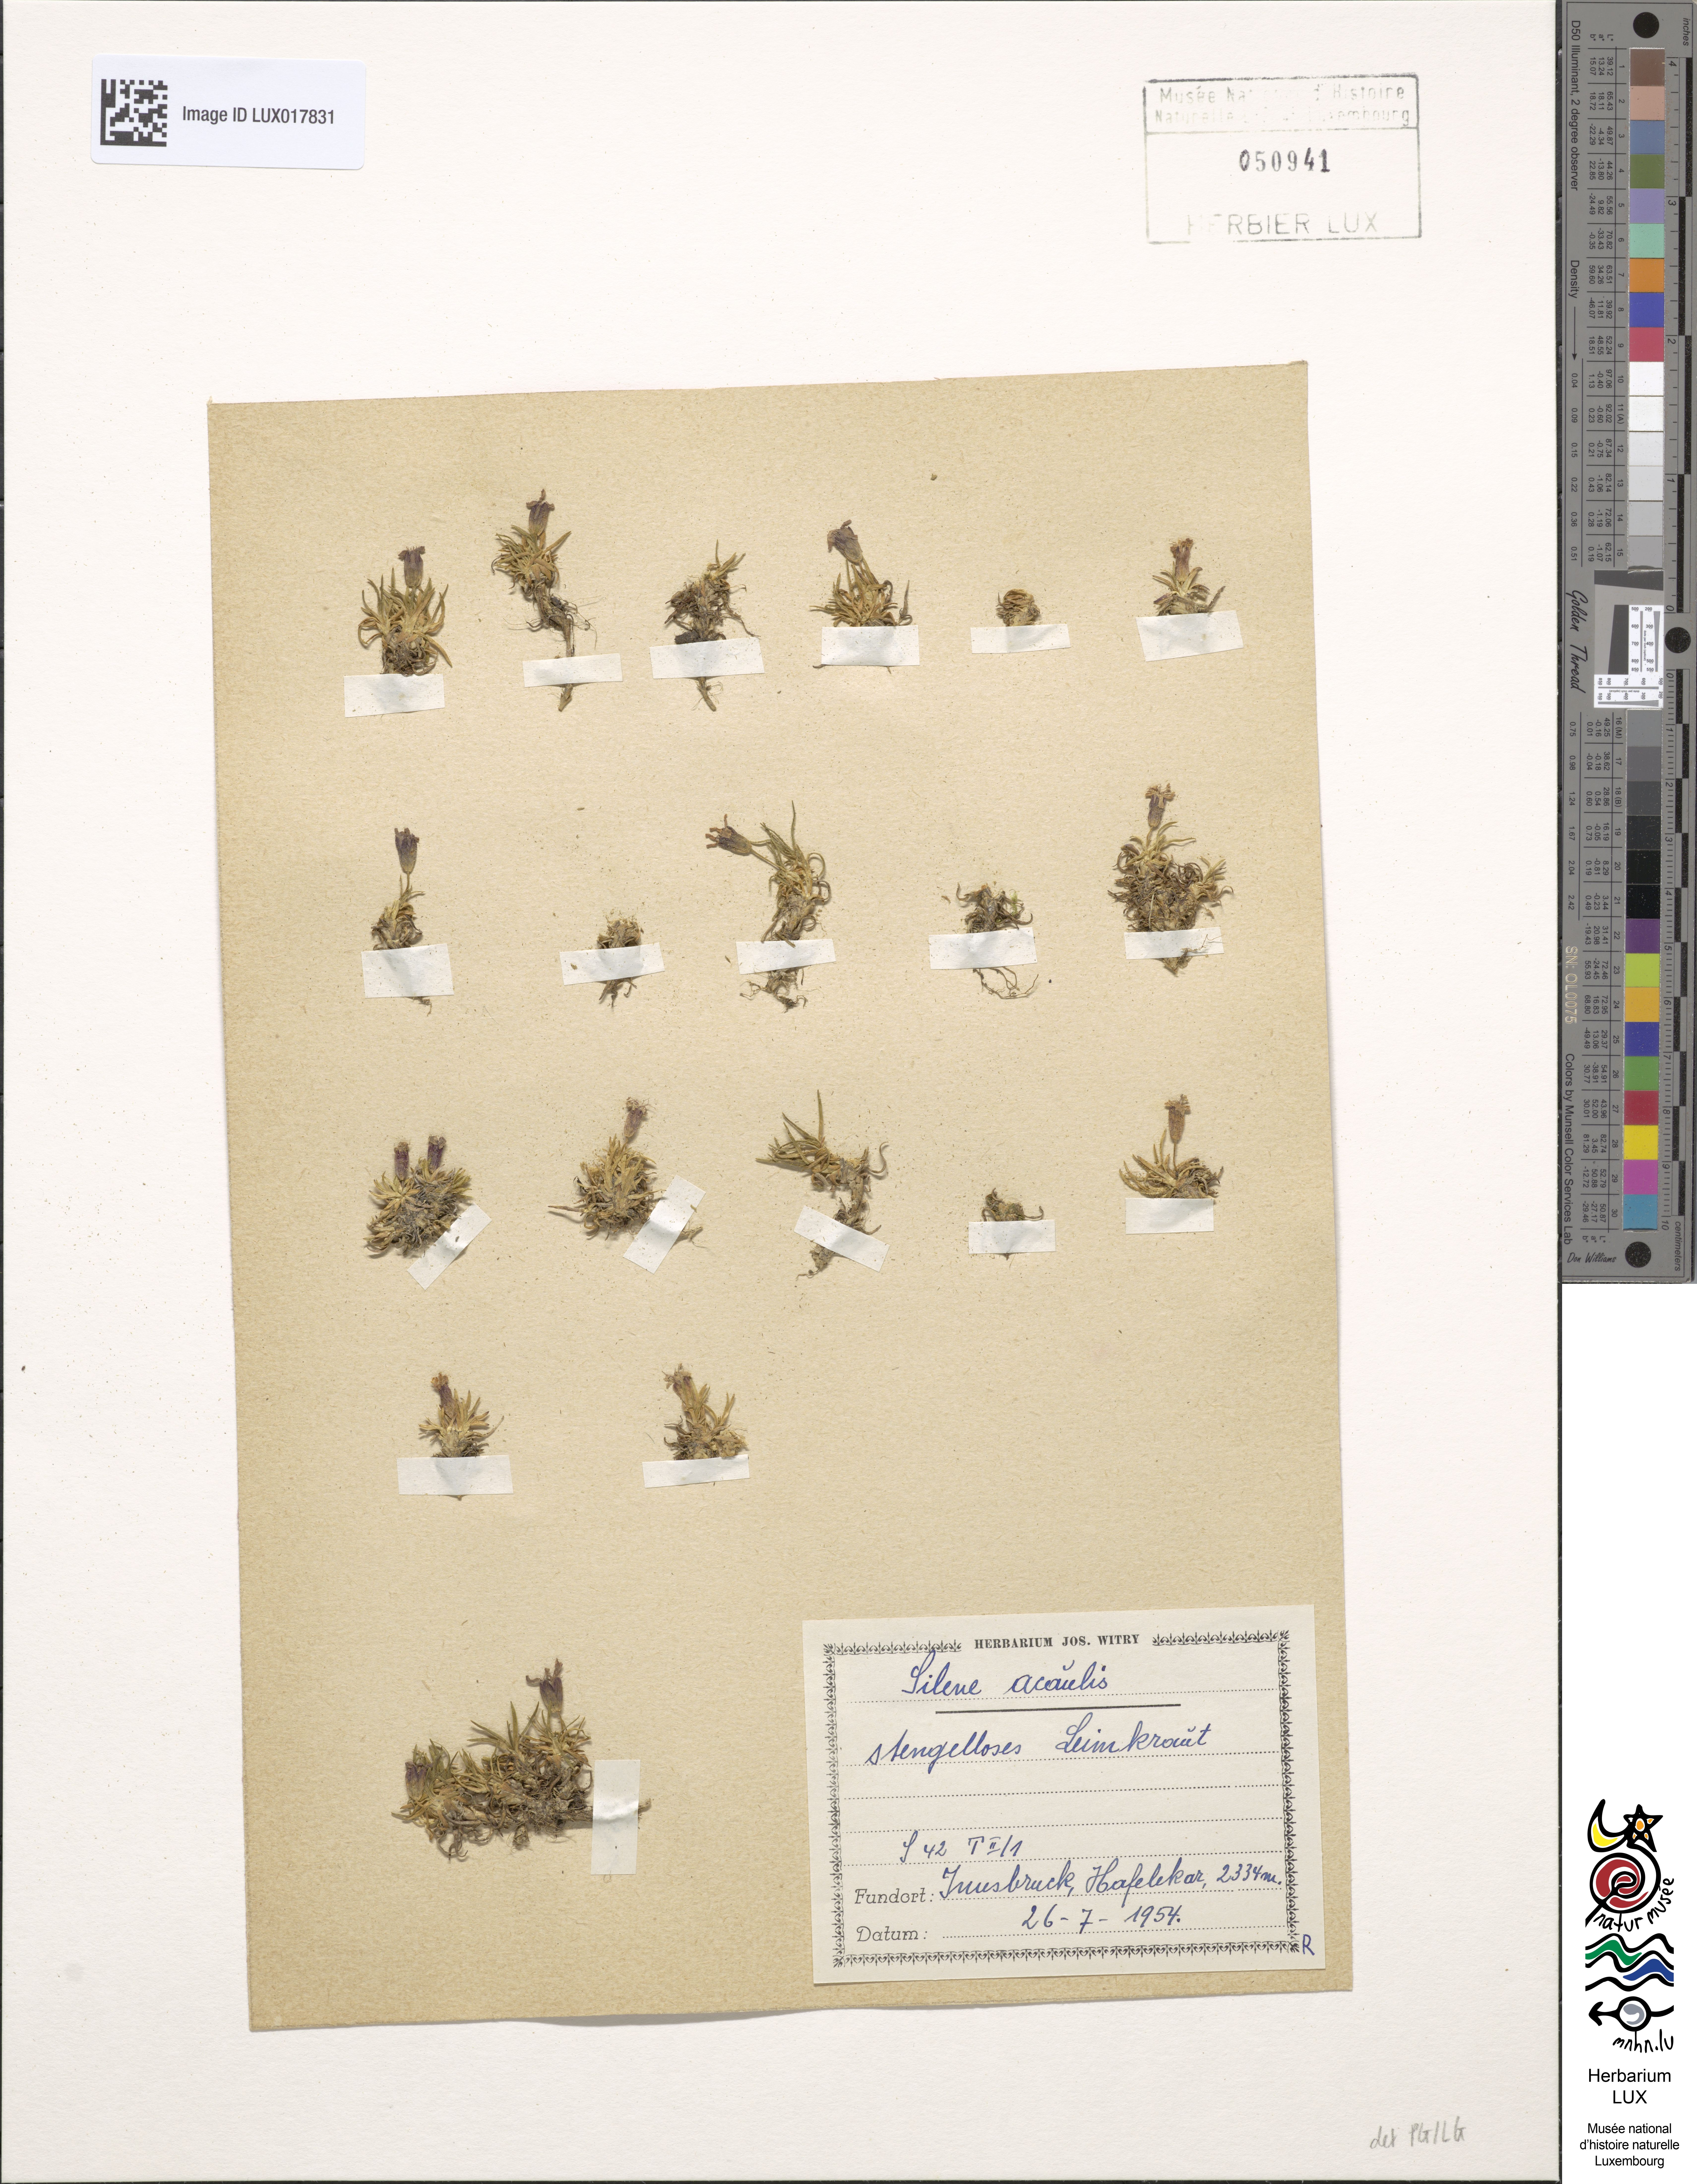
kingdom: Plantae
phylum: Tracheophyta
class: Magnoliopsida
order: Caryophyllales
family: Caryophyllaceae
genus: Silene
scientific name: Silene acaulis
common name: Moss campion
